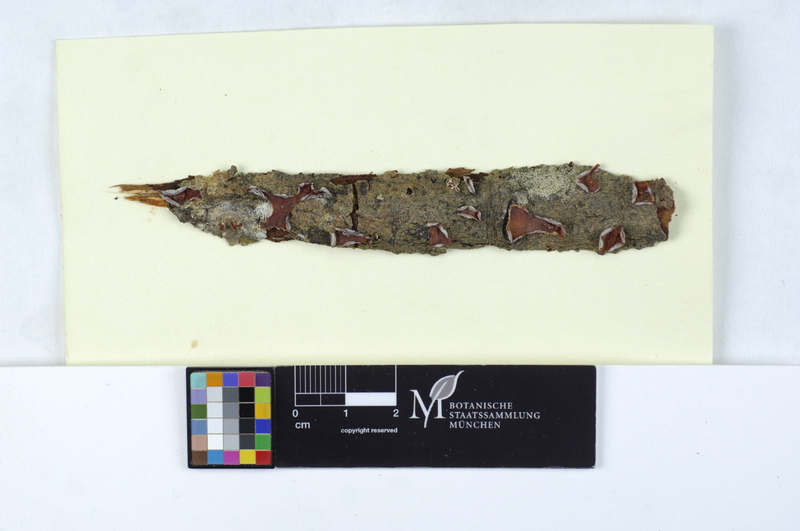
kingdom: Plantae
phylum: Tracheophyta
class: Magnoliopsida
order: Malpighiales
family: Salicaceae
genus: Salix
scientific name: Salix
